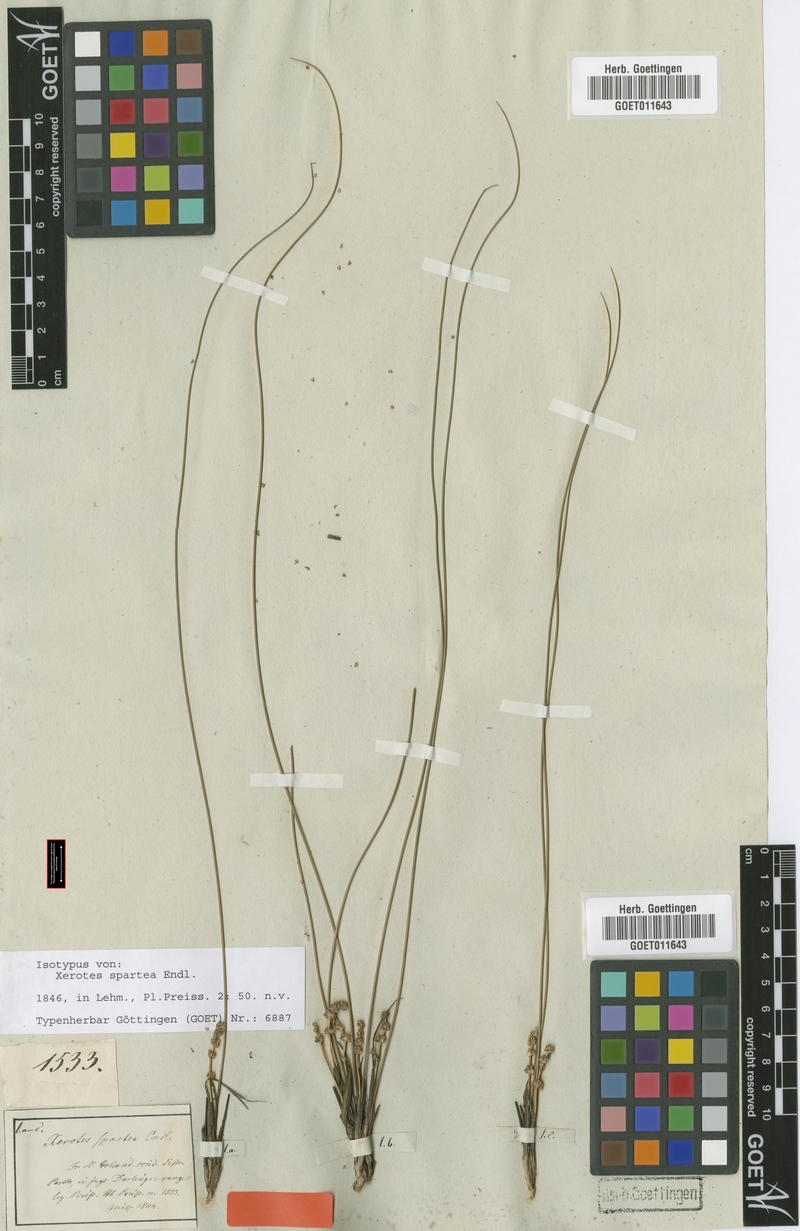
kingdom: Plantae
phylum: Tracheophyta
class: Liliopsida
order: Asparagales
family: Asparagaceae
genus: Lomandra
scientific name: Lomandra spartea
